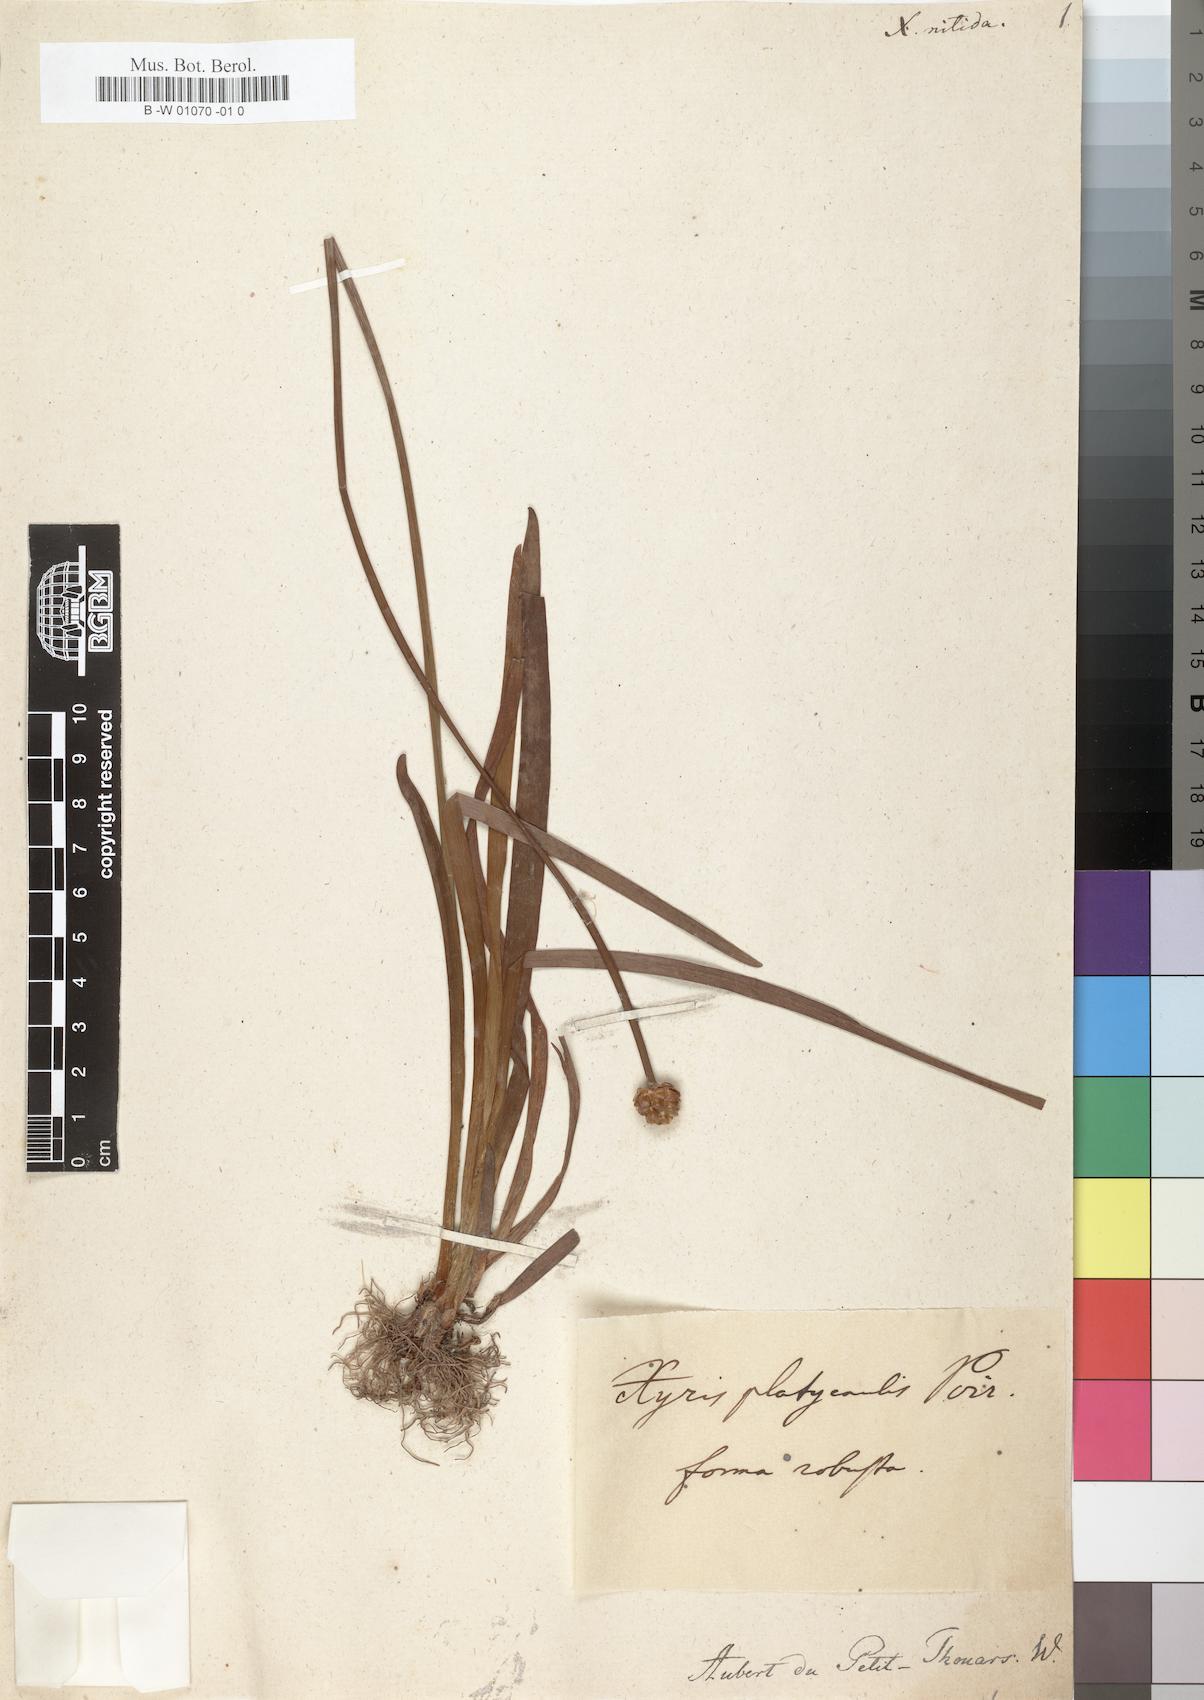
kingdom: Plantae
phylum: Tracheophyta
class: Liliopsida
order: Poales
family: Xyridaceae
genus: Xyris
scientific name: Xyris anceps
